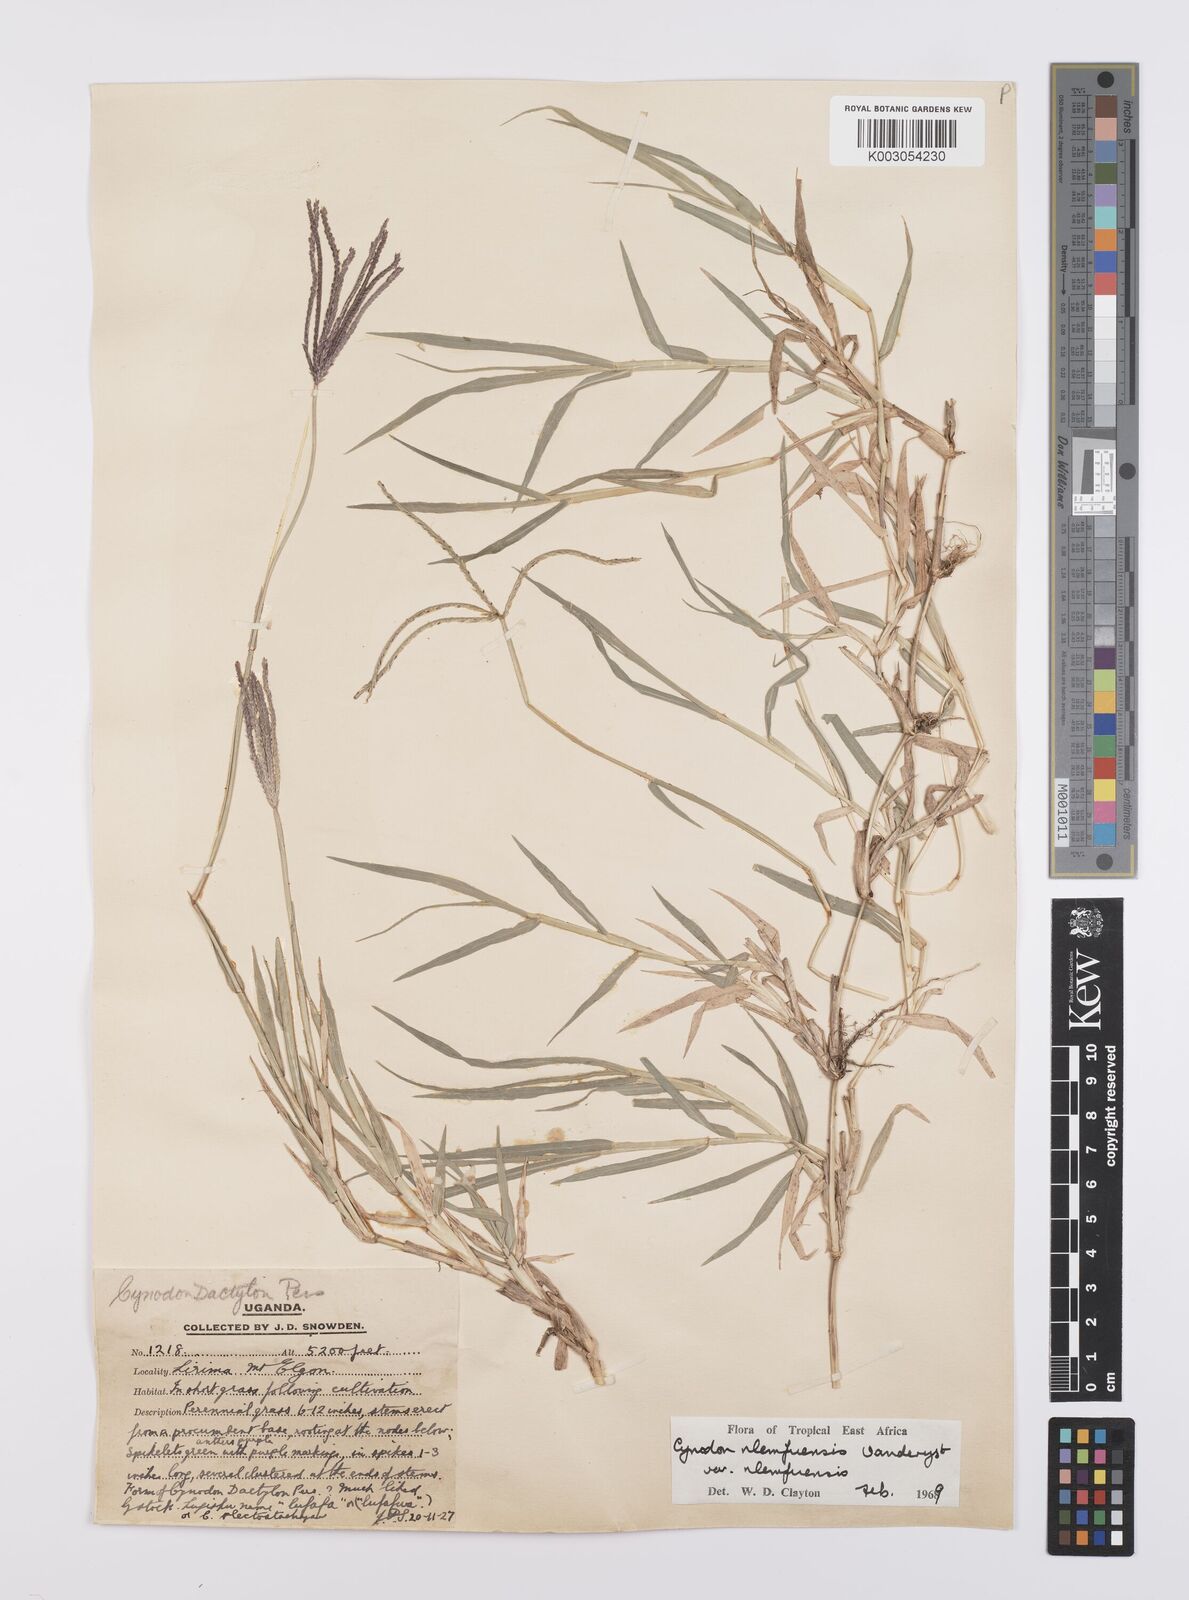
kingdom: Plantae
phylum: Tracheophyta
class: Liliopsida
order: Poales
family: Poaceae
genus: Cynodon
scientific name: Cynodon nlemfuensis
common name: African bermudagrass
